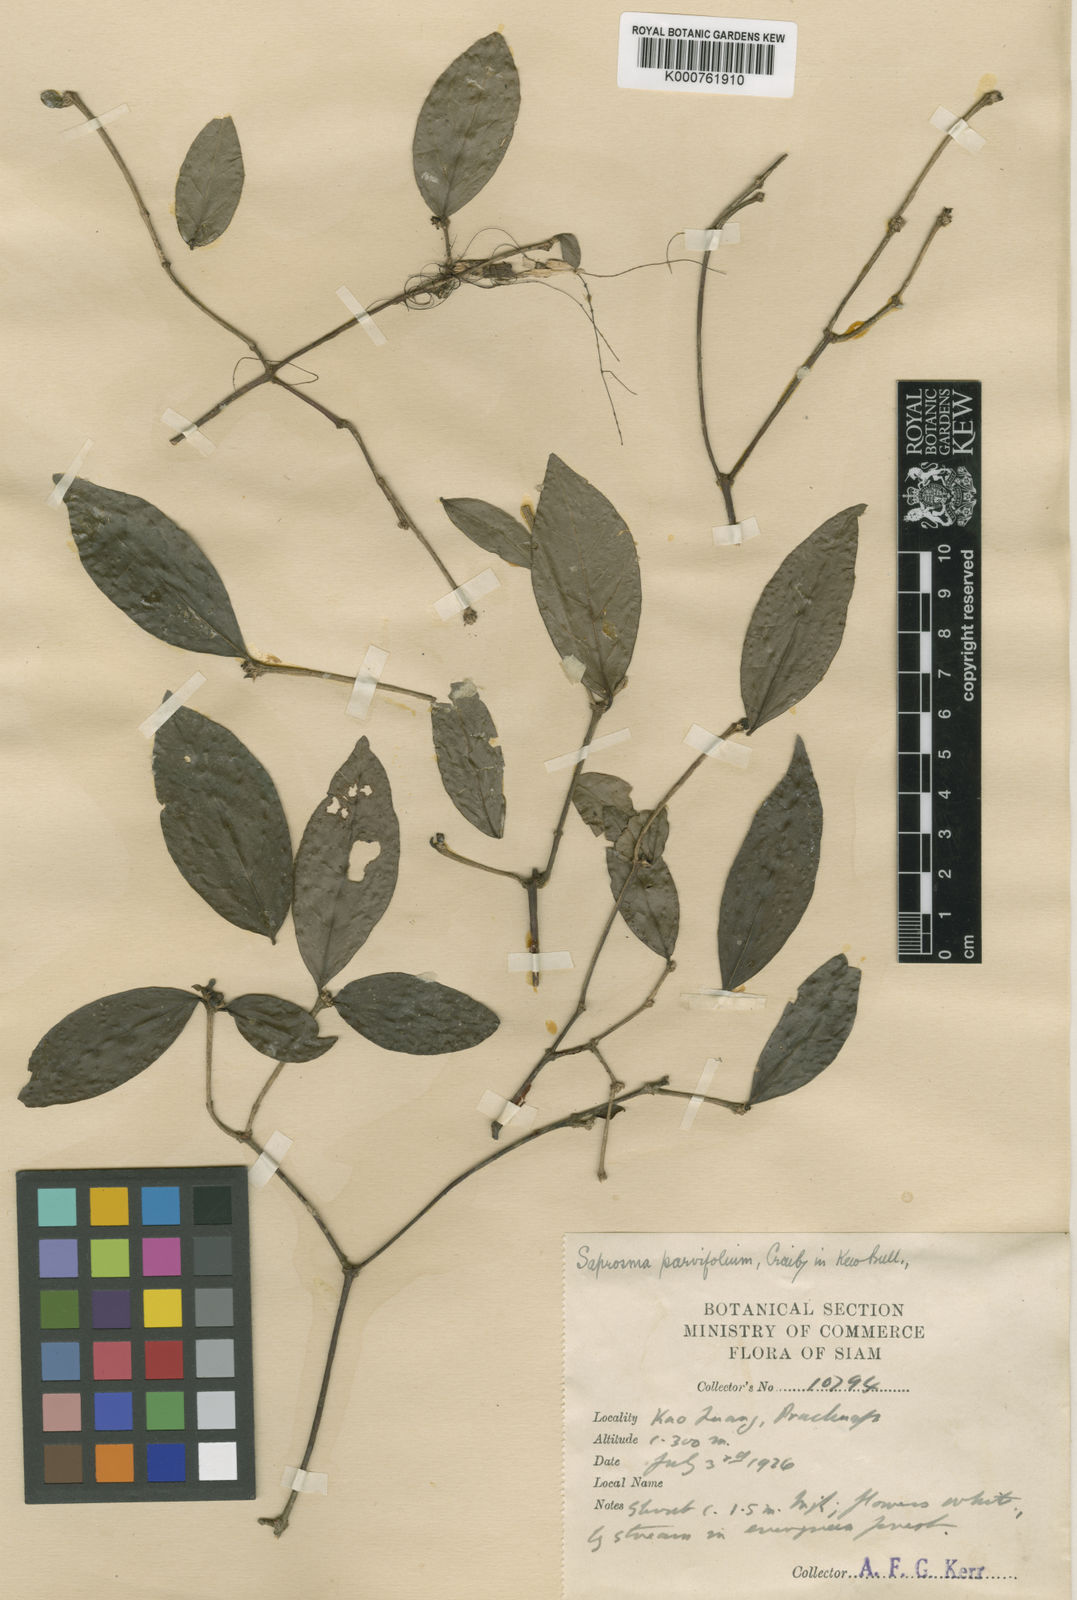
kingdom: Plantae
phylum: Tracheophyta
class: Magnoliopsida
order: Gentianales
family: Rubiaceae
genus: Saprosma
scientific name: Saprosma parvifolia
